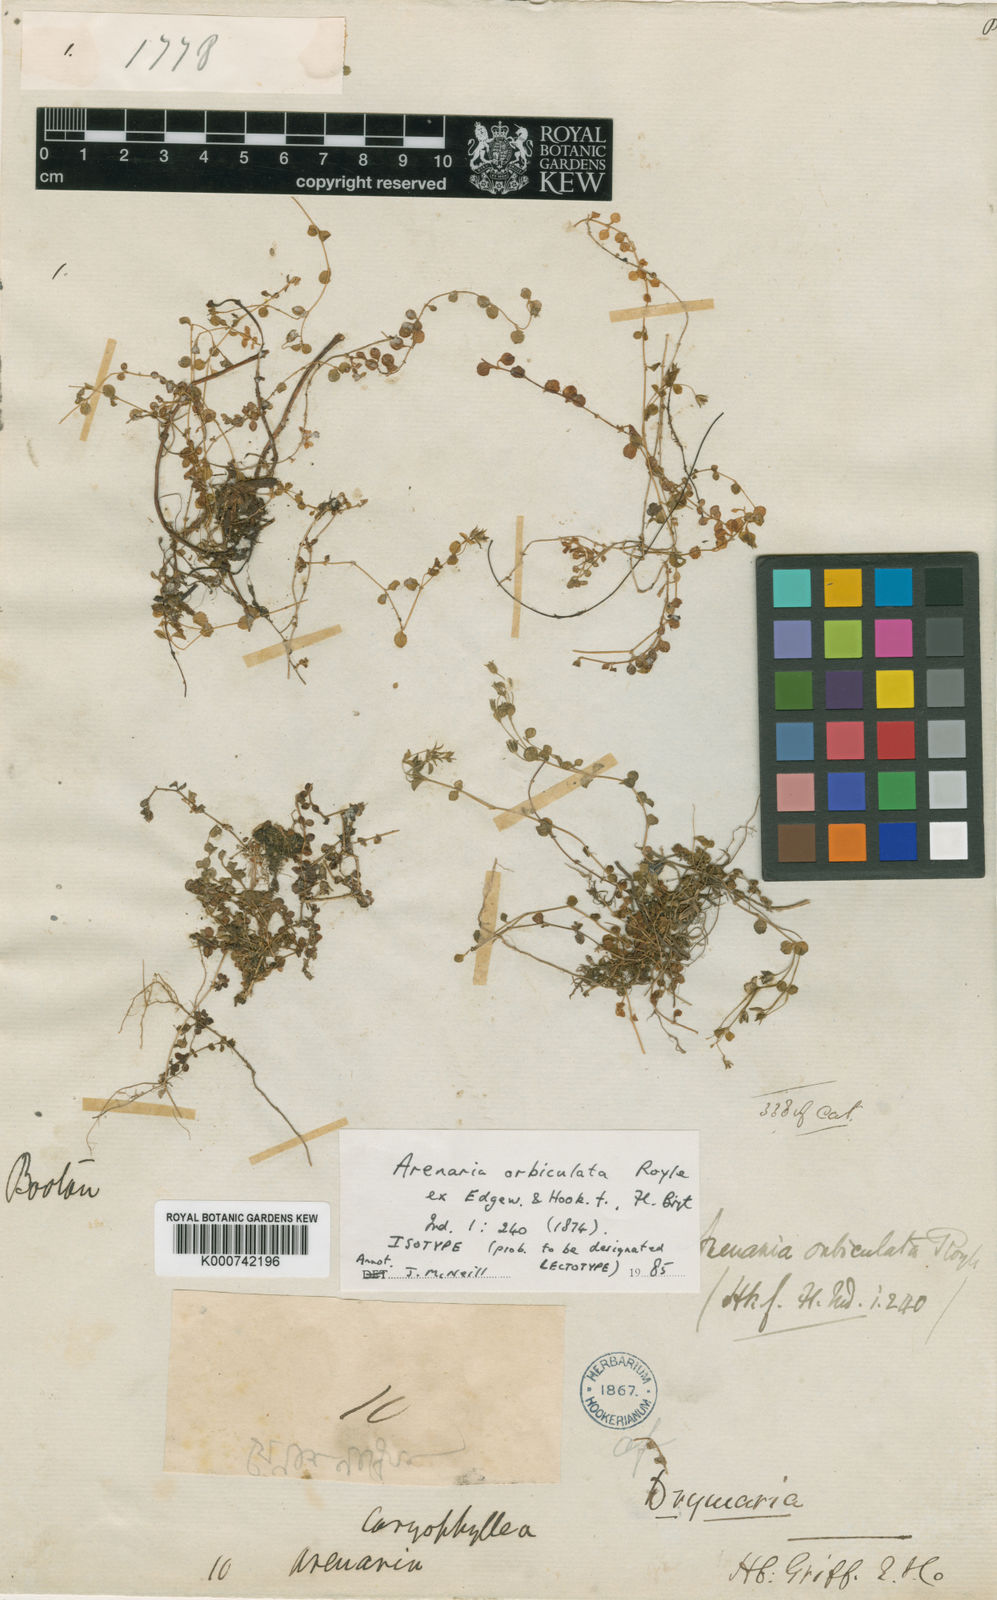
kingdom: Plantae
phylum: Tracheophyta
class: Magnoliopsida
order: Caryophyllales
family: Caryophyllaceae
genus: Arenaria
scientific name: Arenaria orbiculata
